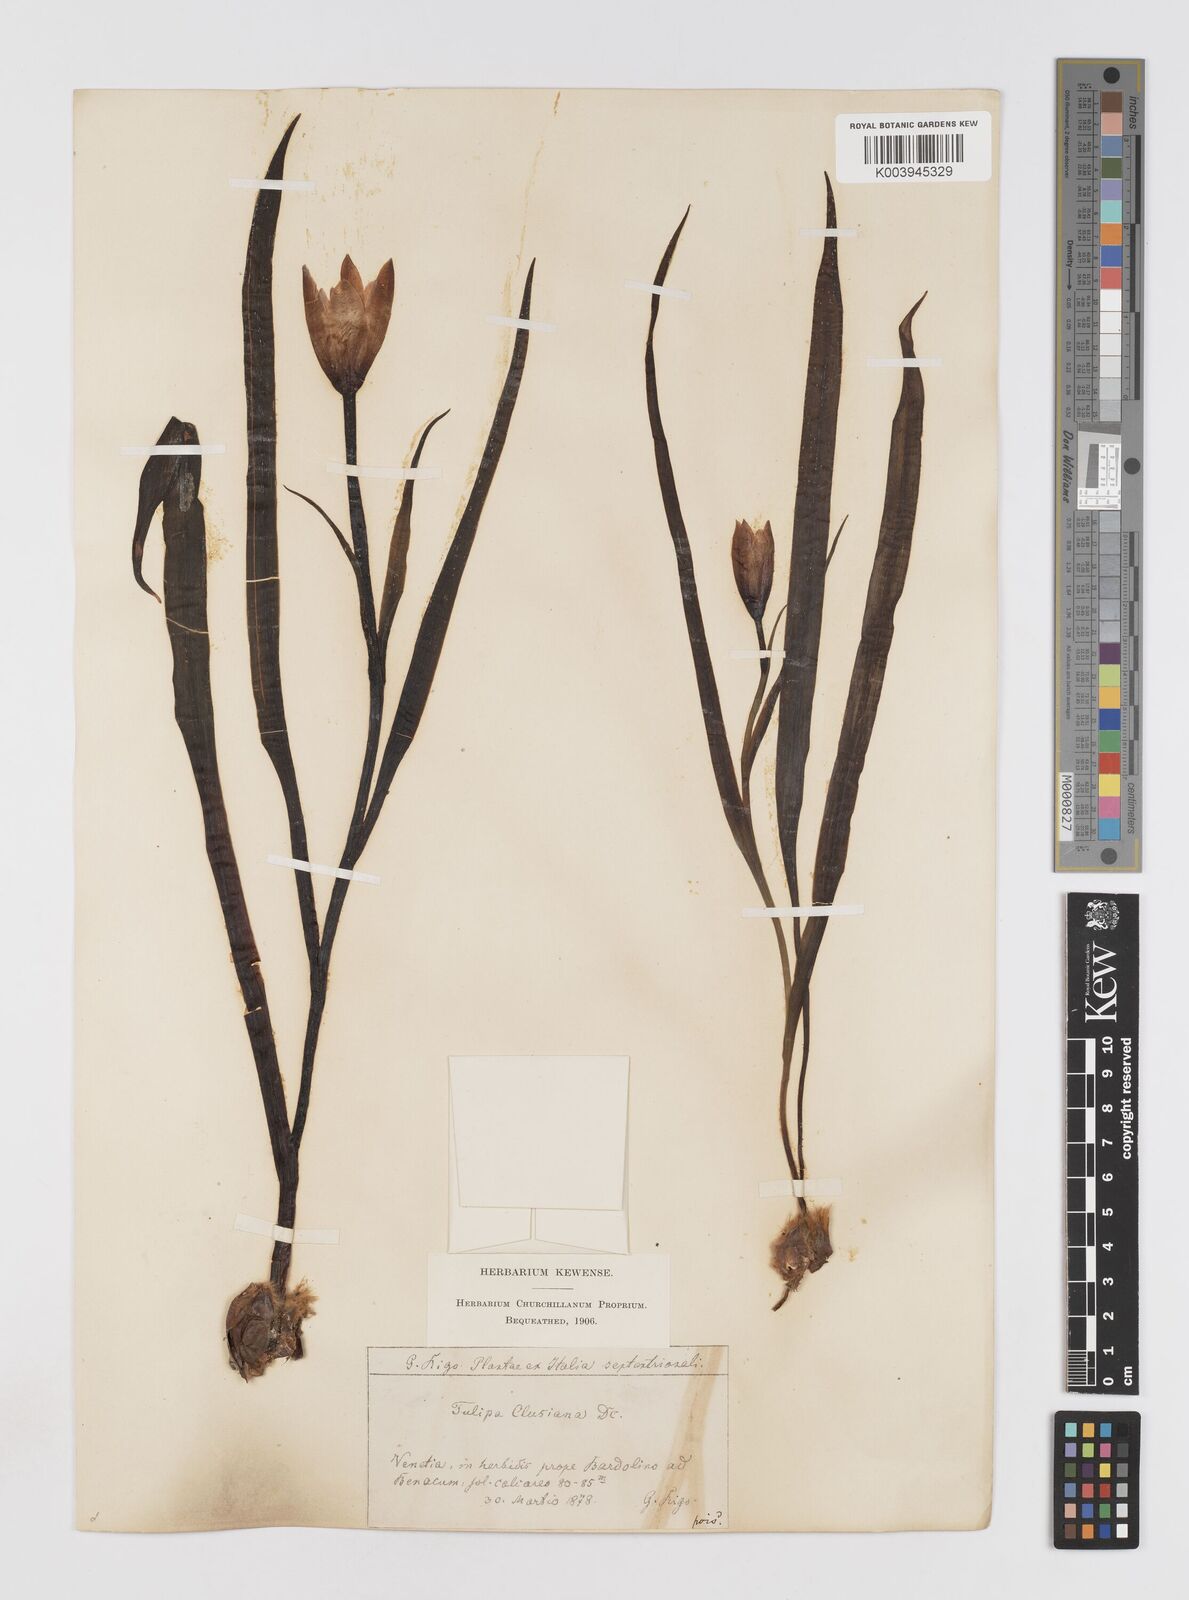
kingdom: Plantae
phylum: Tracheophyta
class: Liliopsida
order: Liliales
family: Liliaceae
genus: Tulipa
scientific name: Tulipa clusiana
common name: Lady tulip
